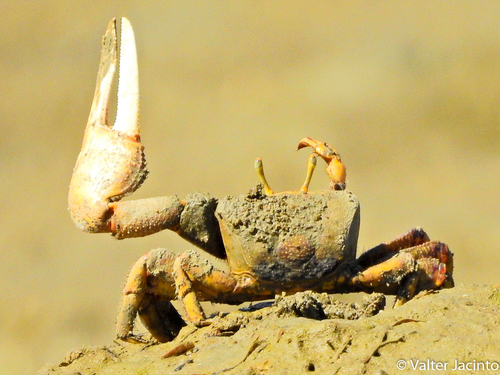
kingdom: Animalia
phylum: Arthropoda
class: Malacostraca
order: Decapoda
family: Ocypodidae
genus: Afruca
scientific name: Afruca tangeri
